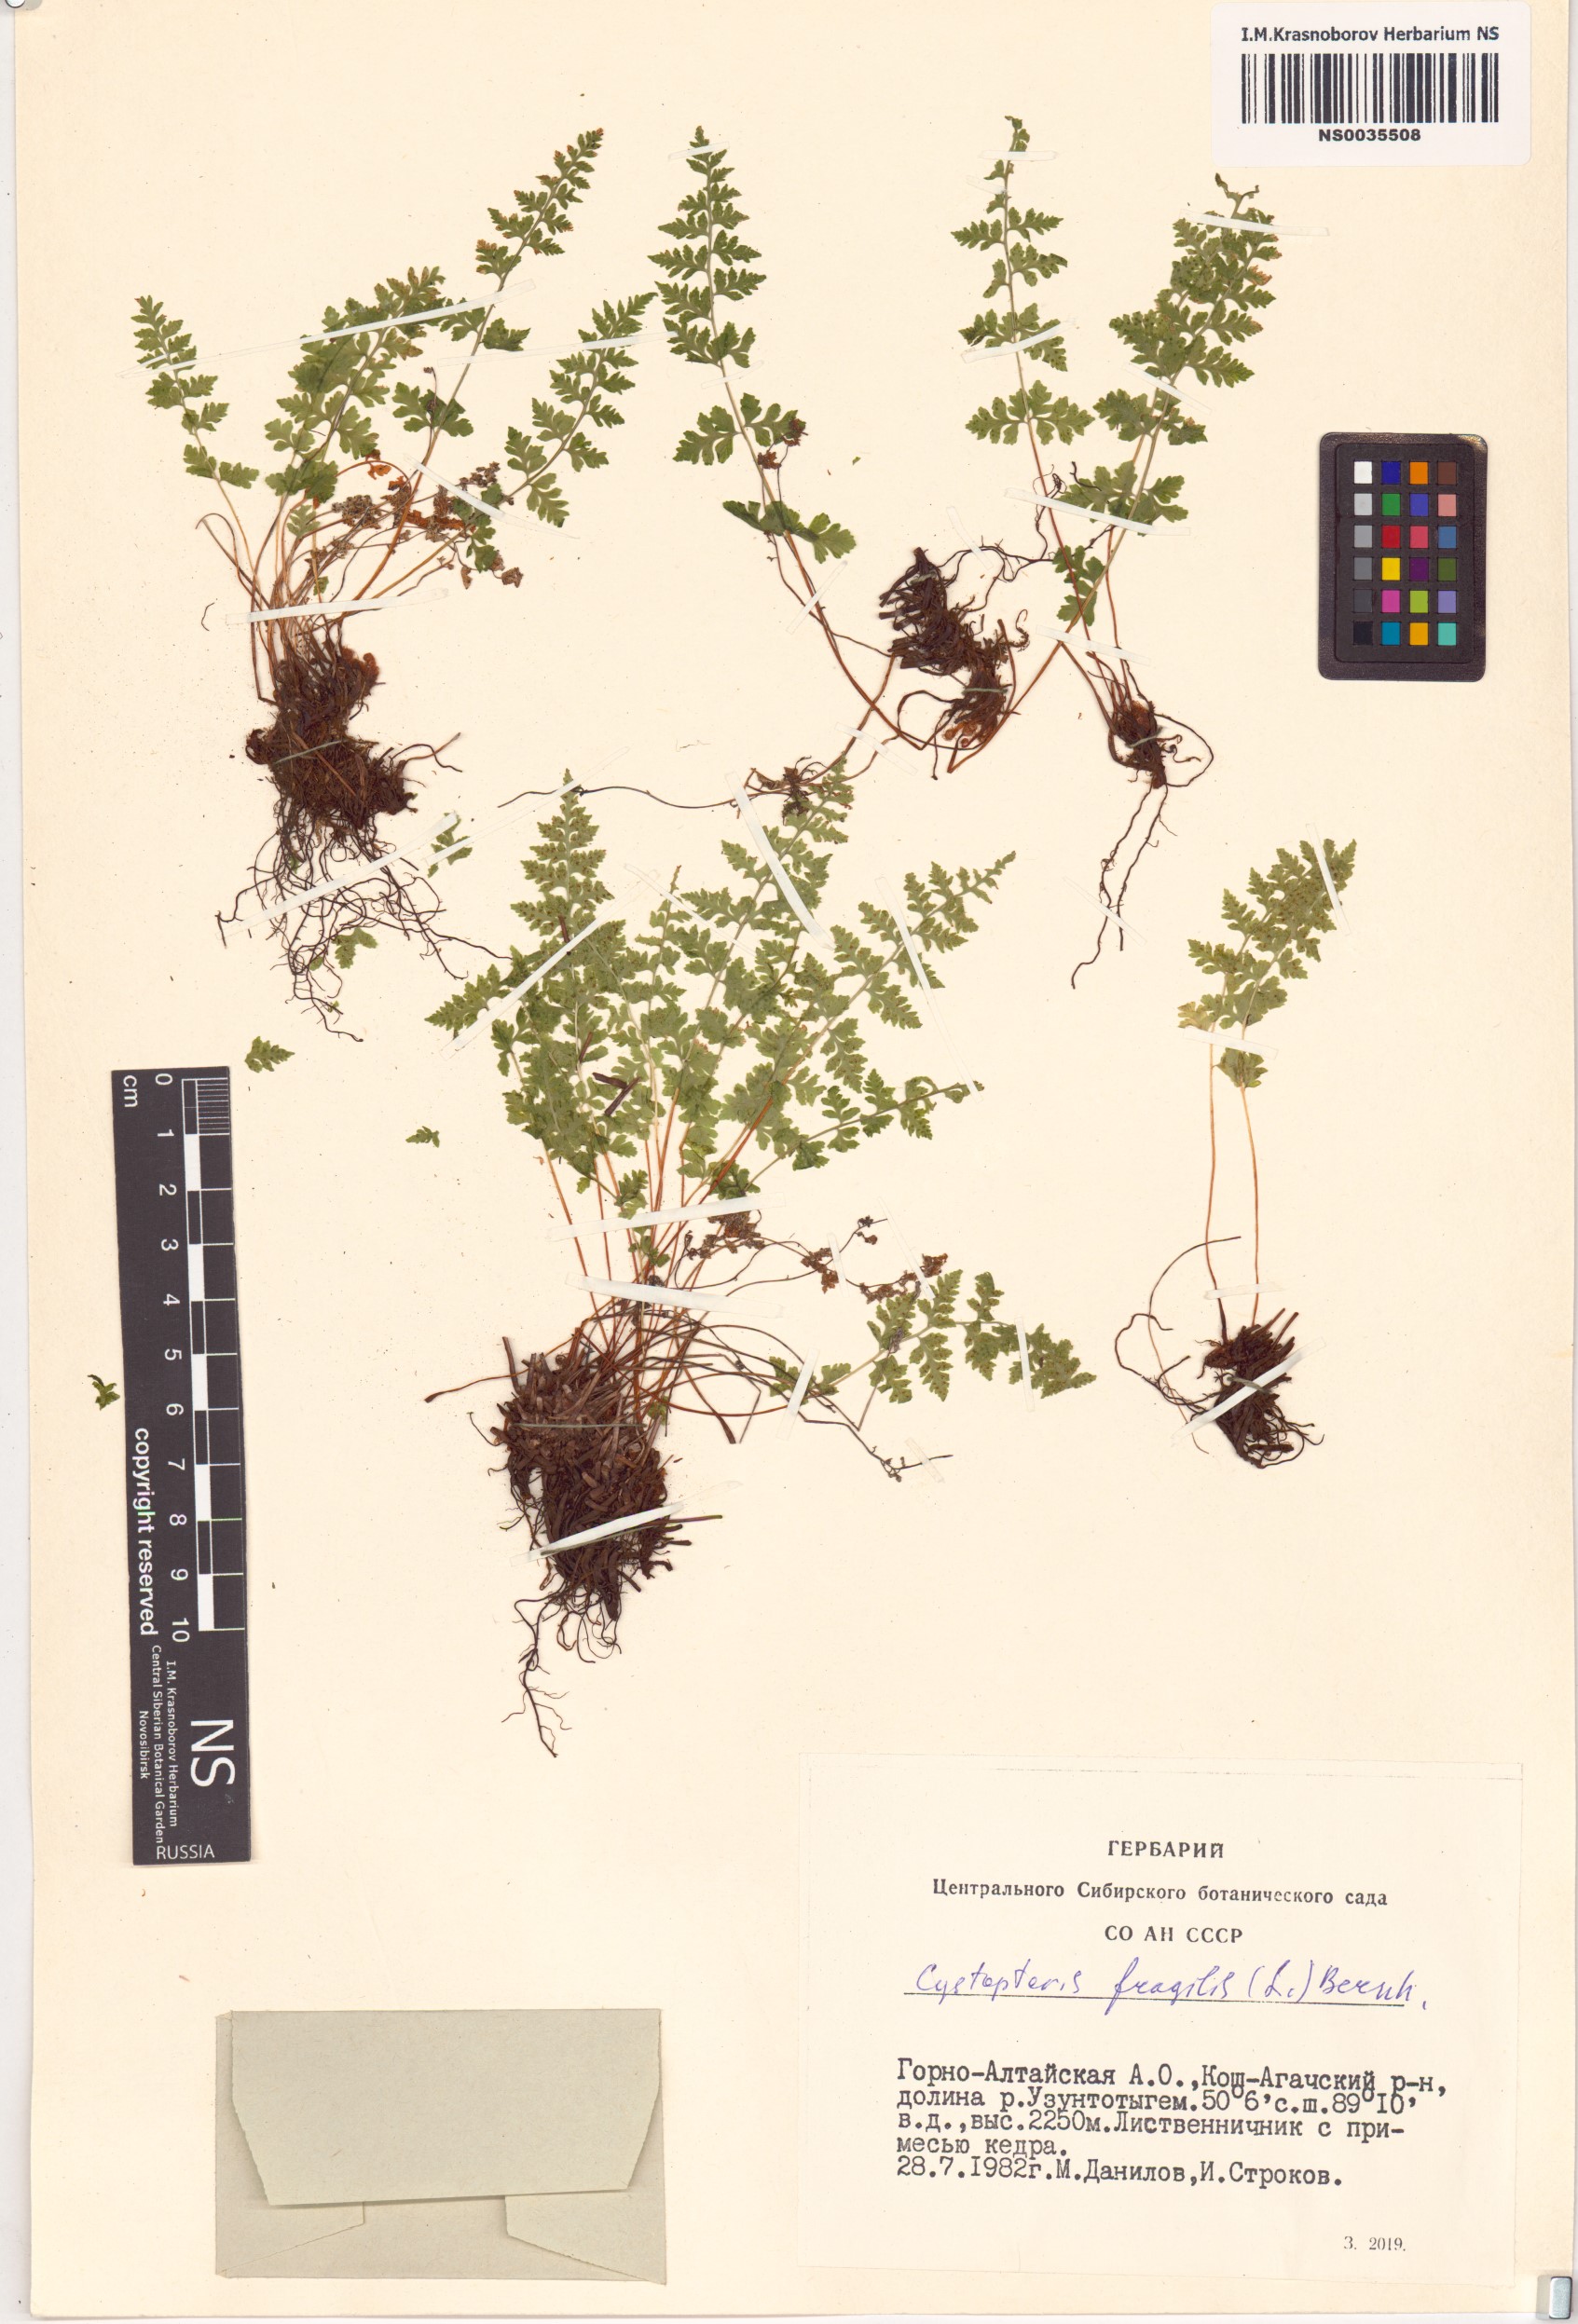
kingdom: Plantae
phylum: Tracheophyta
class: Polypodiopsida
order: Polypodiales
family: Cystopteridaceae
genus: Cystopteris
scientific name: Cystopteris fragilis
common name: Brittle bladder fern
